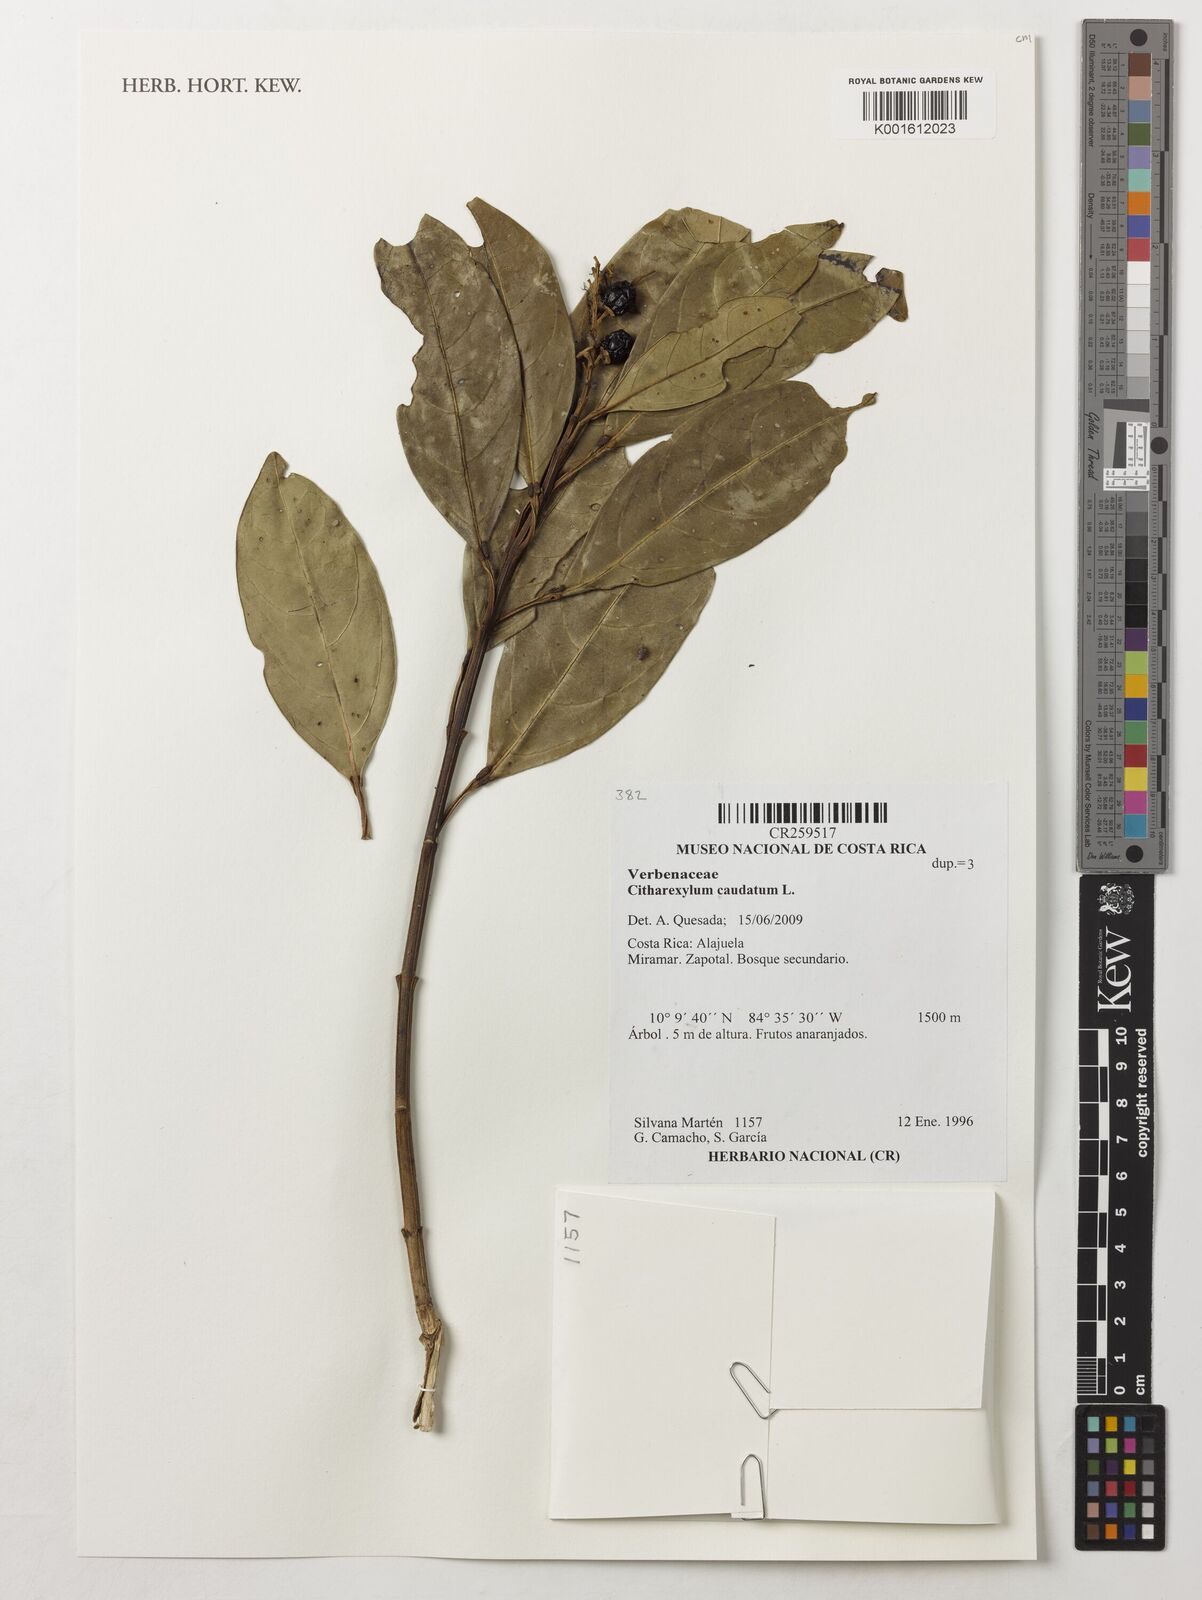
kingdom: Plantae
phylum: Tracheophyta
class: Magnoliopsida
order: Lamiales
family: Verbenaceae
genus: Citharexylum
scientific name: Citharexylum caudatum
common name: Fiddlewood
